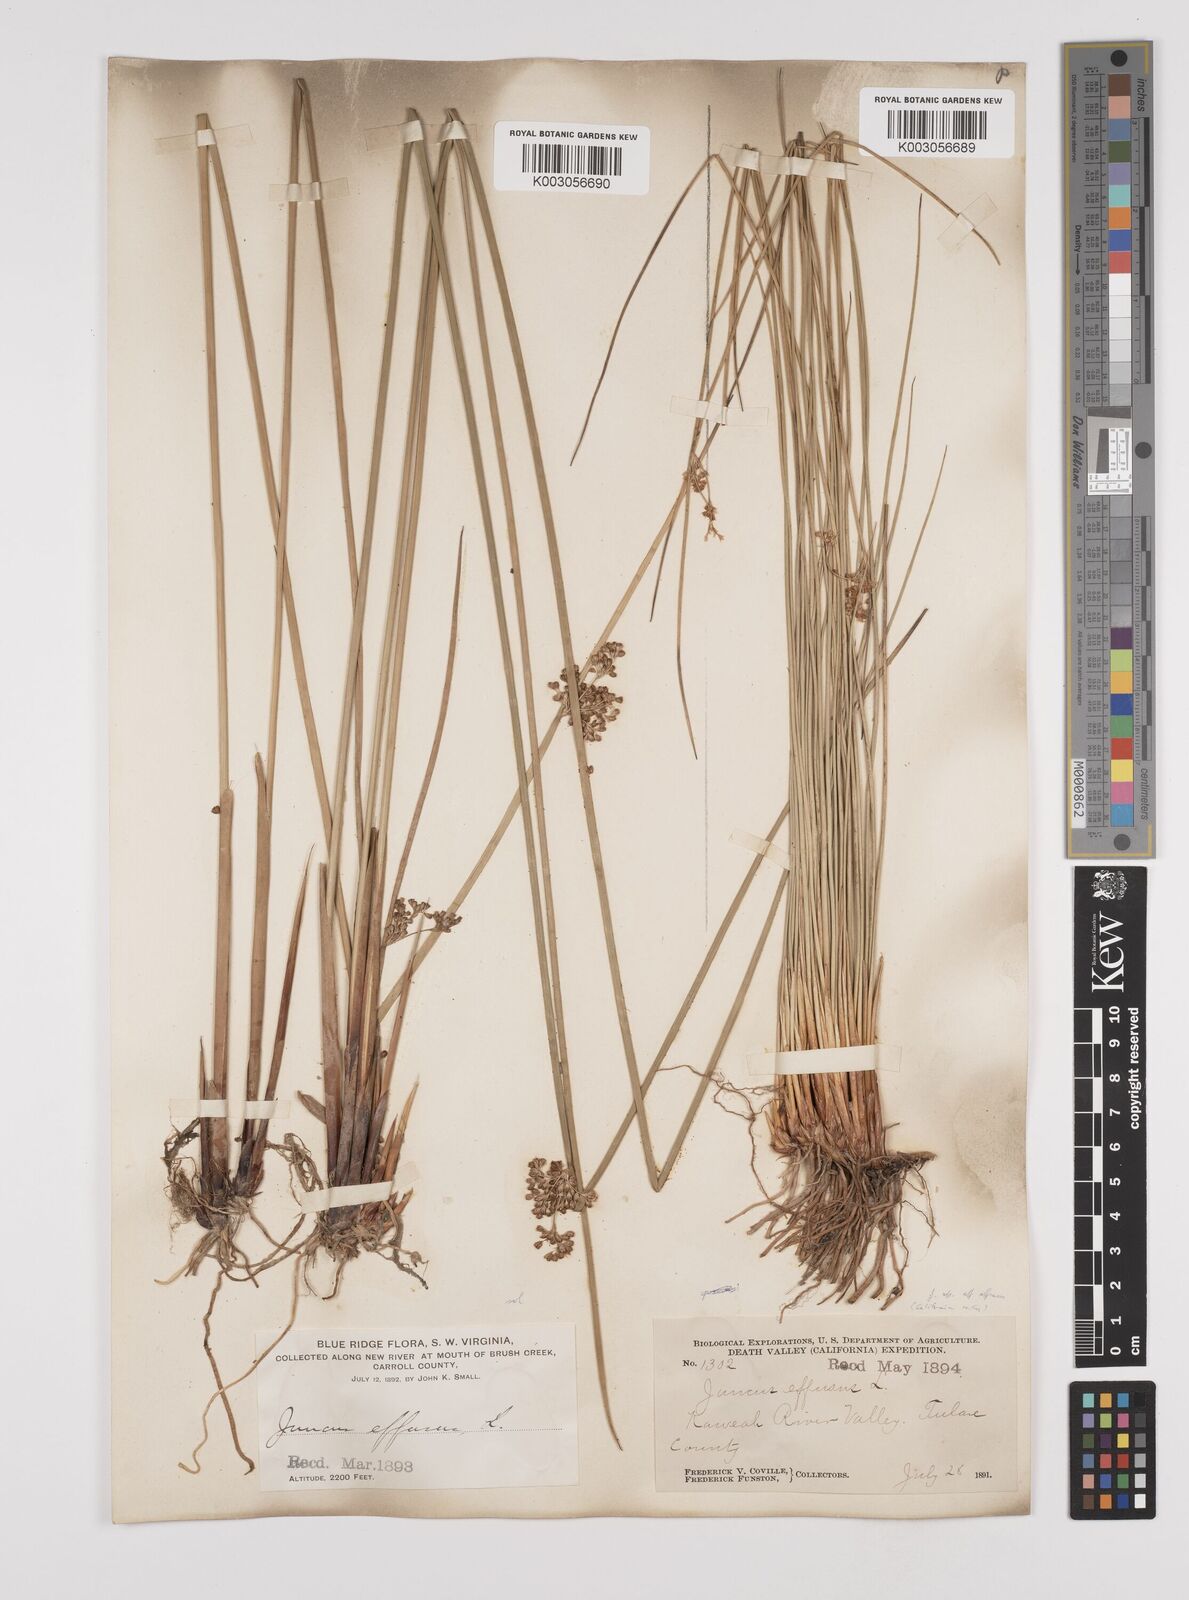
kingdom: Plantae
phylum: Tracheophyta
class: Liliopsida
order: Poales
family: Juncaceae
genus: Juncus
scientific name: Juncus effusus
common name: Soft rush
